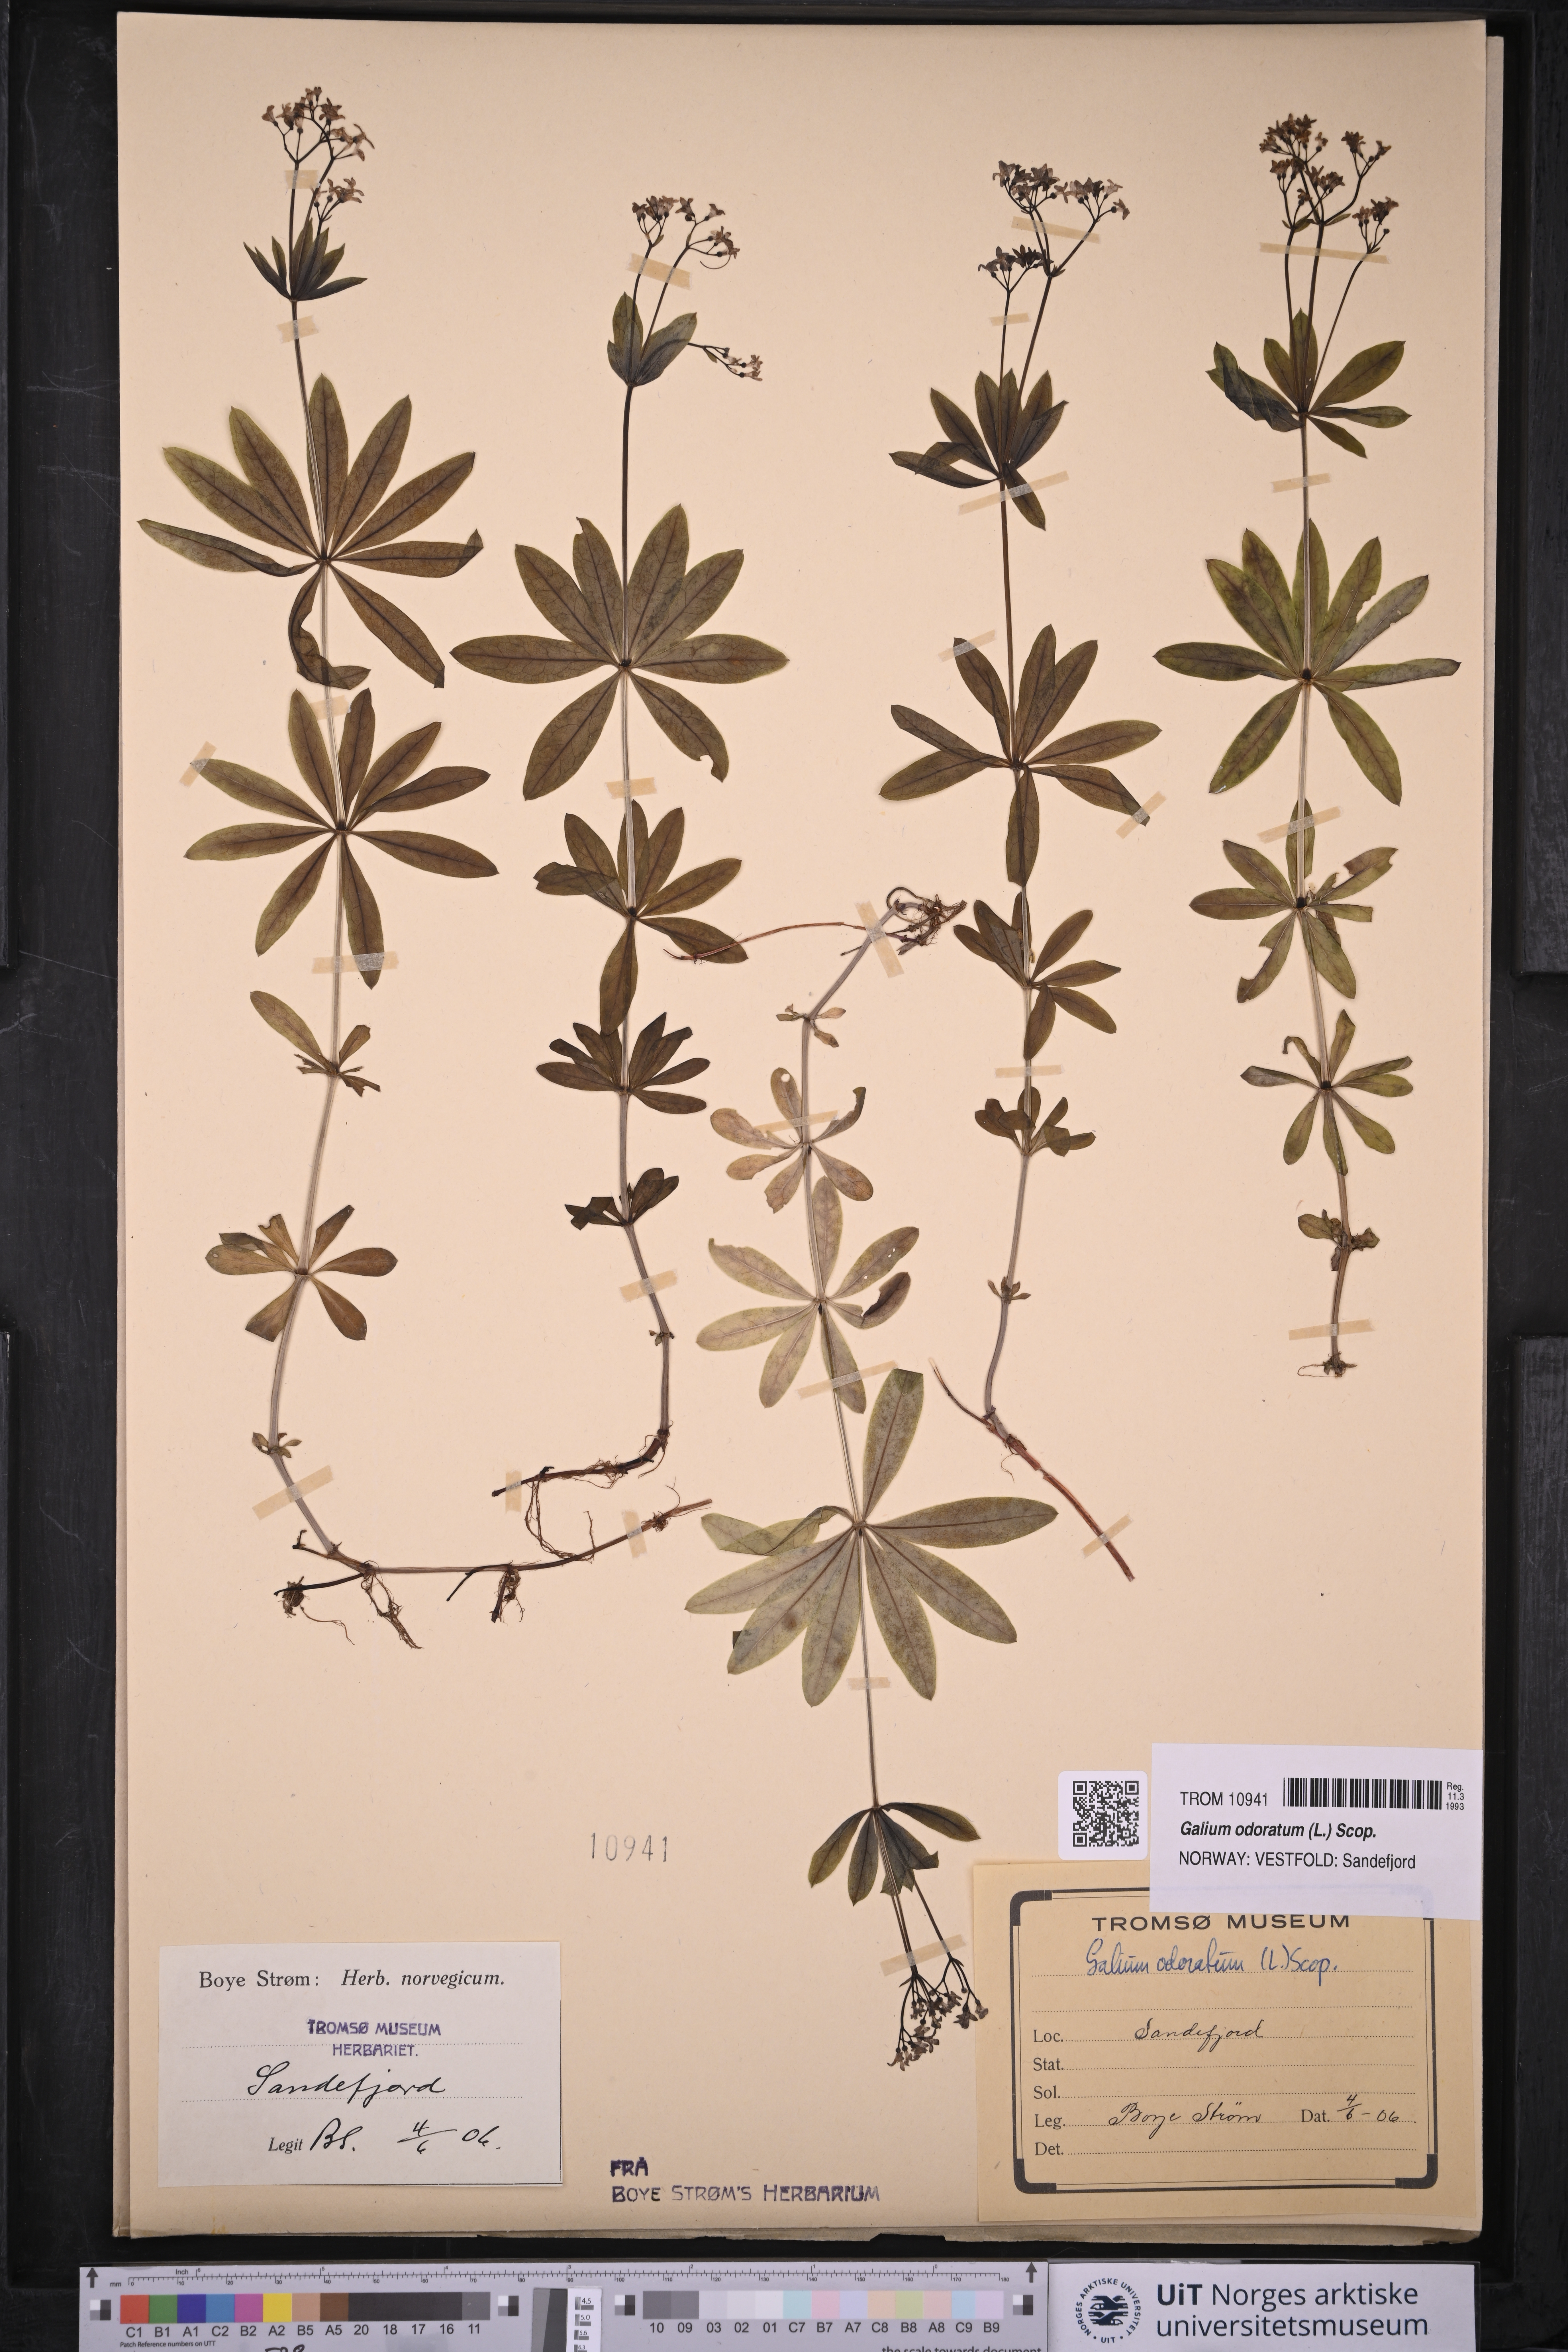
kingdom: Plantae
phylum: Tracheophyta
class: Magnoliopsida
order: Gentianales
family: Rubiaceae
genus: Galium
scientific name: Galium odoratum
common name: Sweet woodruff
